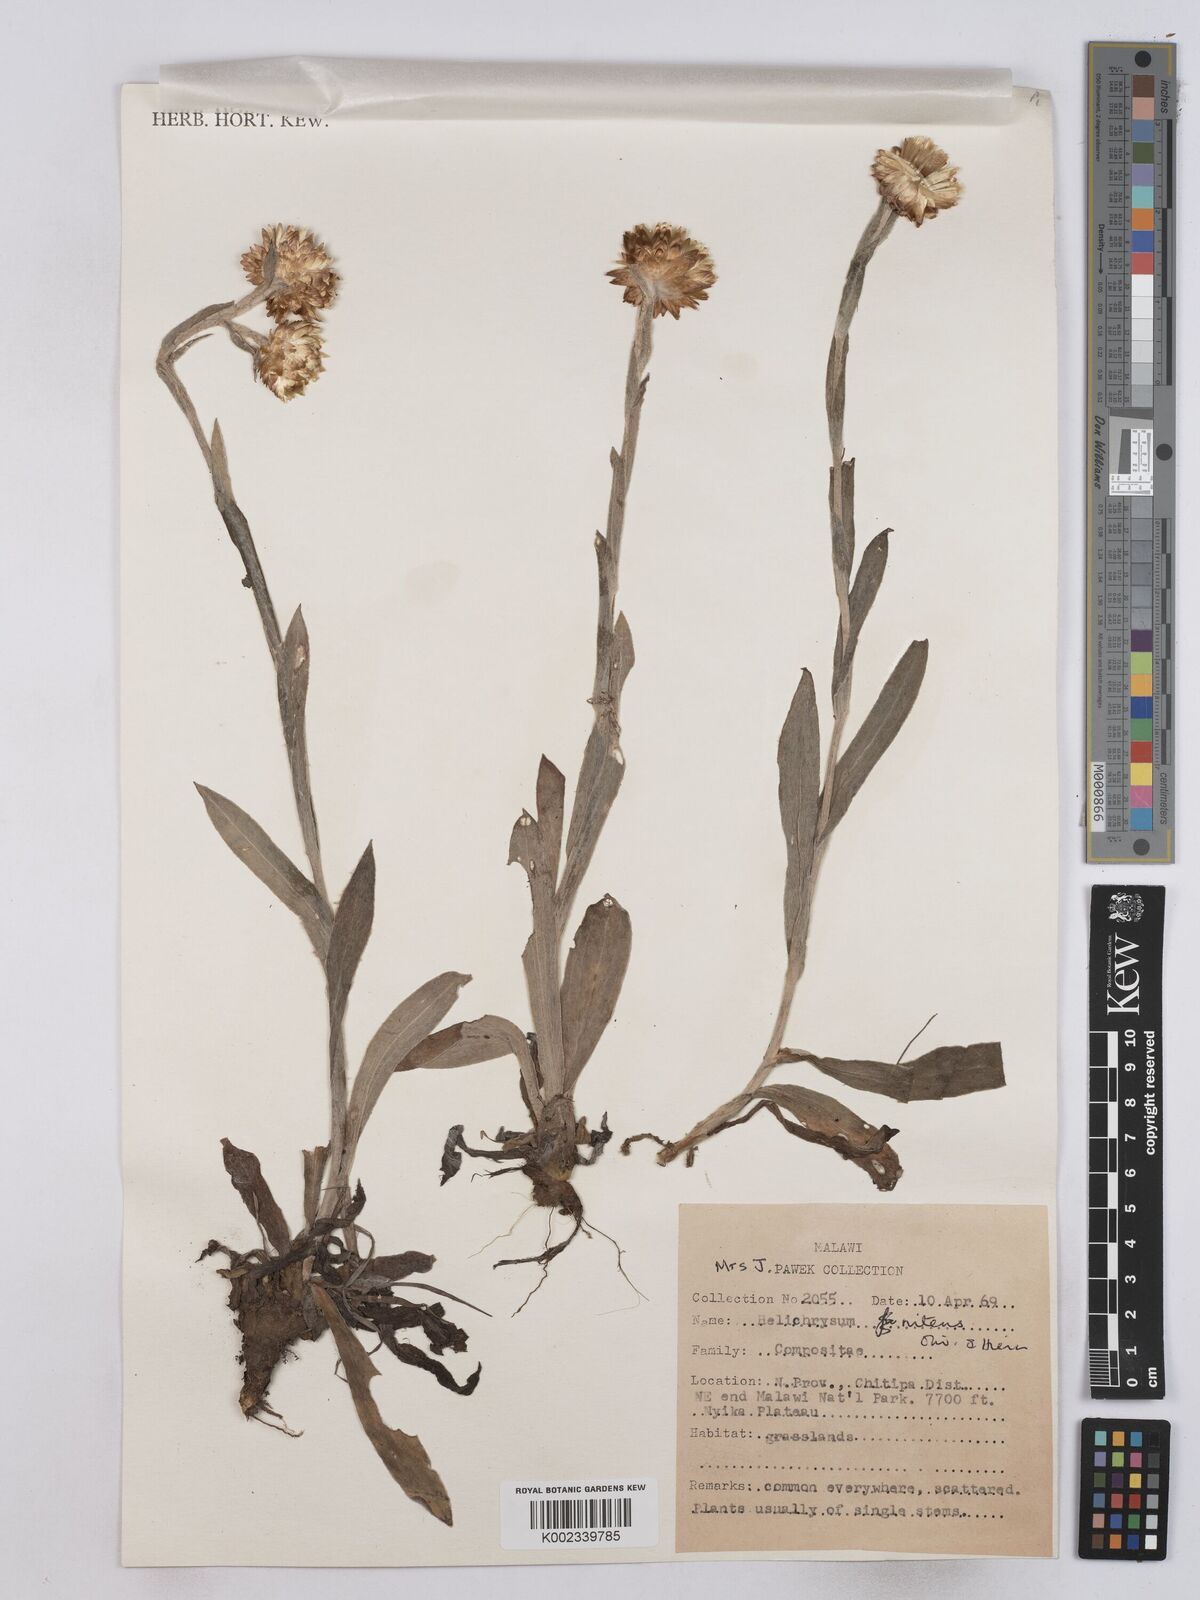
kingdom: Plantae
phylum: Tracheophyta
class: Magnoliopsida
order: Asterales
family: Asteraceae
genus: Helichrysum
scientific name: Helichrysum nitens
